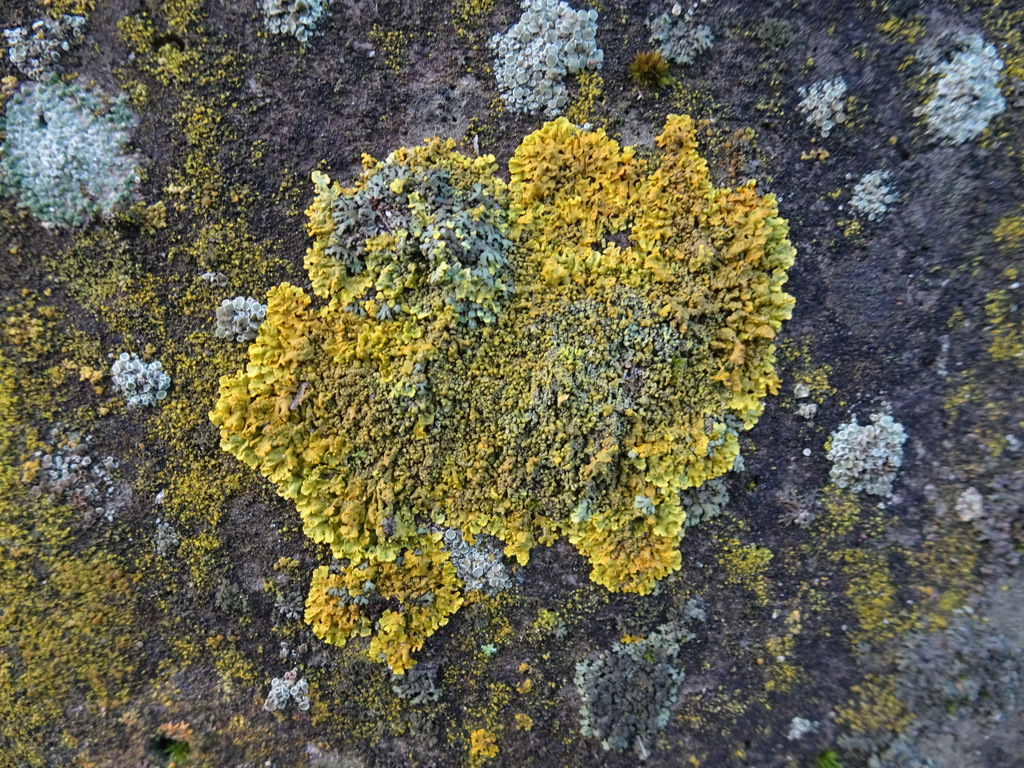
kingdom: Fungi
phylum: Ascomycota
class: Lecanoromycetes
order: Teloschistales
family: Teloschistaceae
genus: Xanthoria
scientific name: Xanthoria calcicola
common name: vortet væggelav
